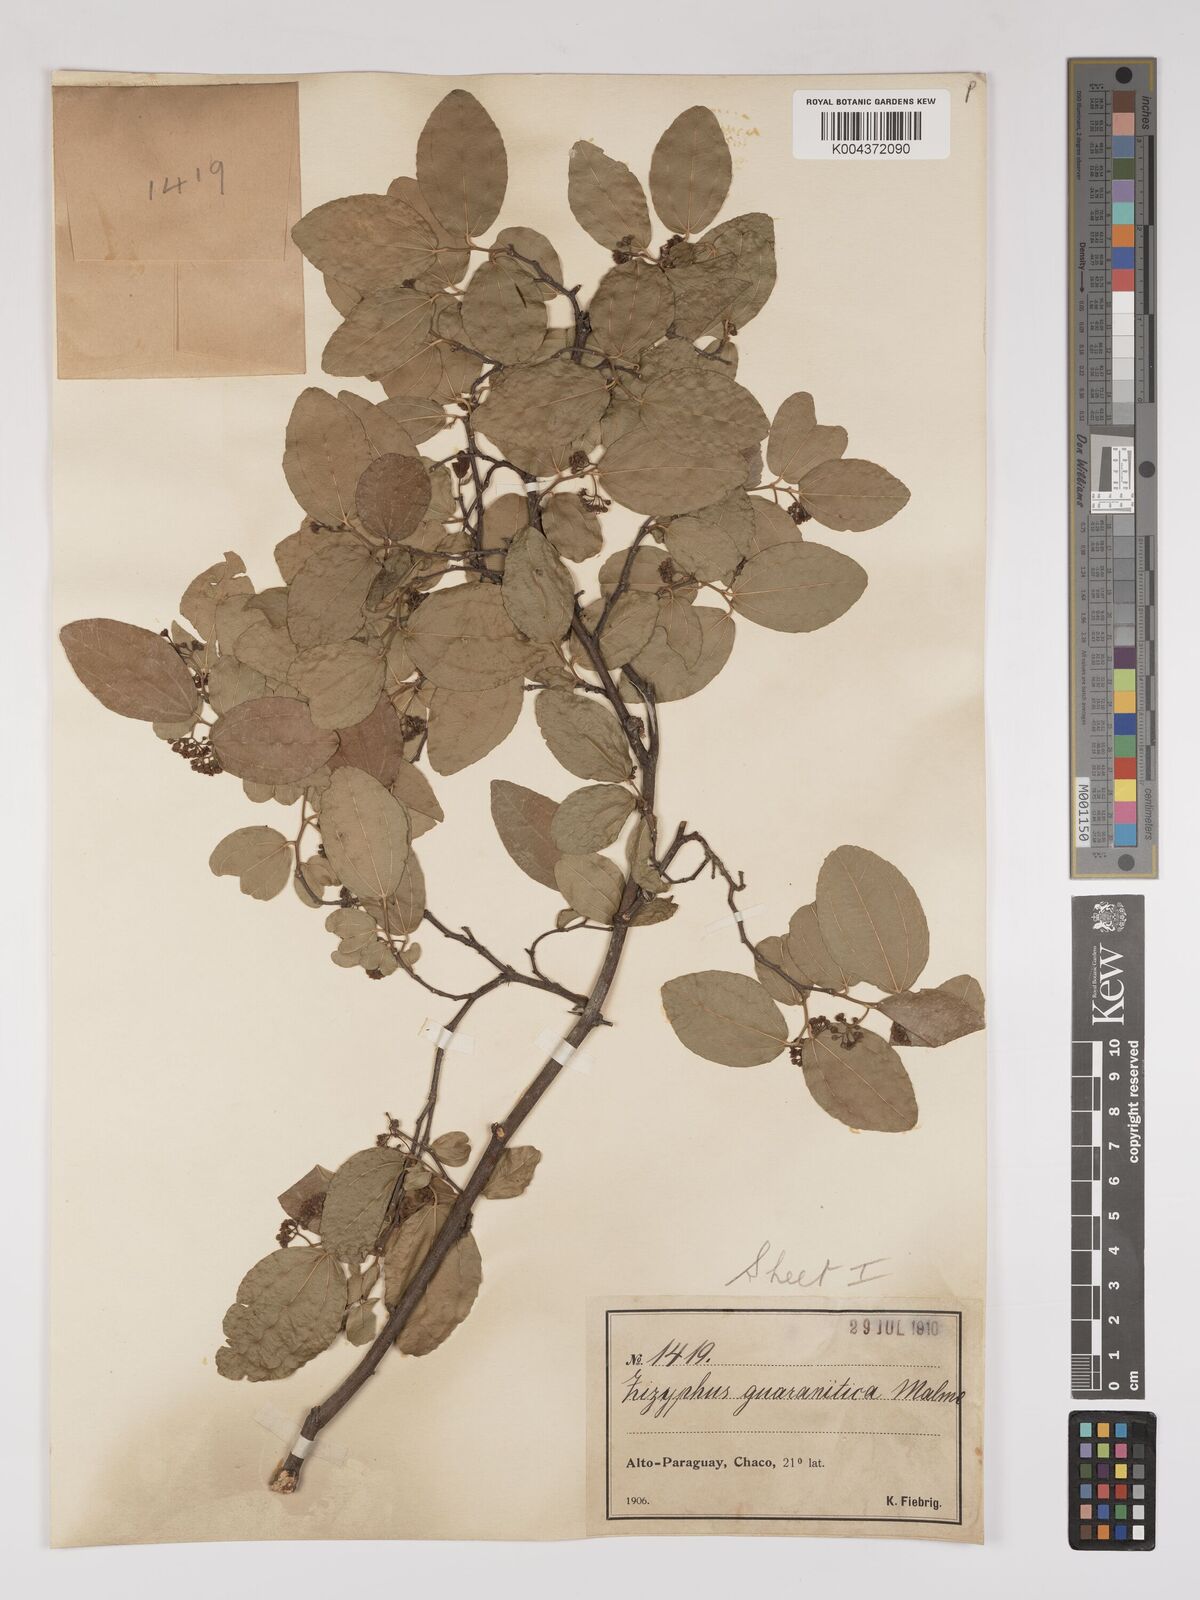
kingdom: Plantae
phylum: Tracheophyta
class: Magnoliopsida
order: Rosales
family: Rhamnaceae
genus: Ziziphus
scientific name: Ziziphus guaranitica
